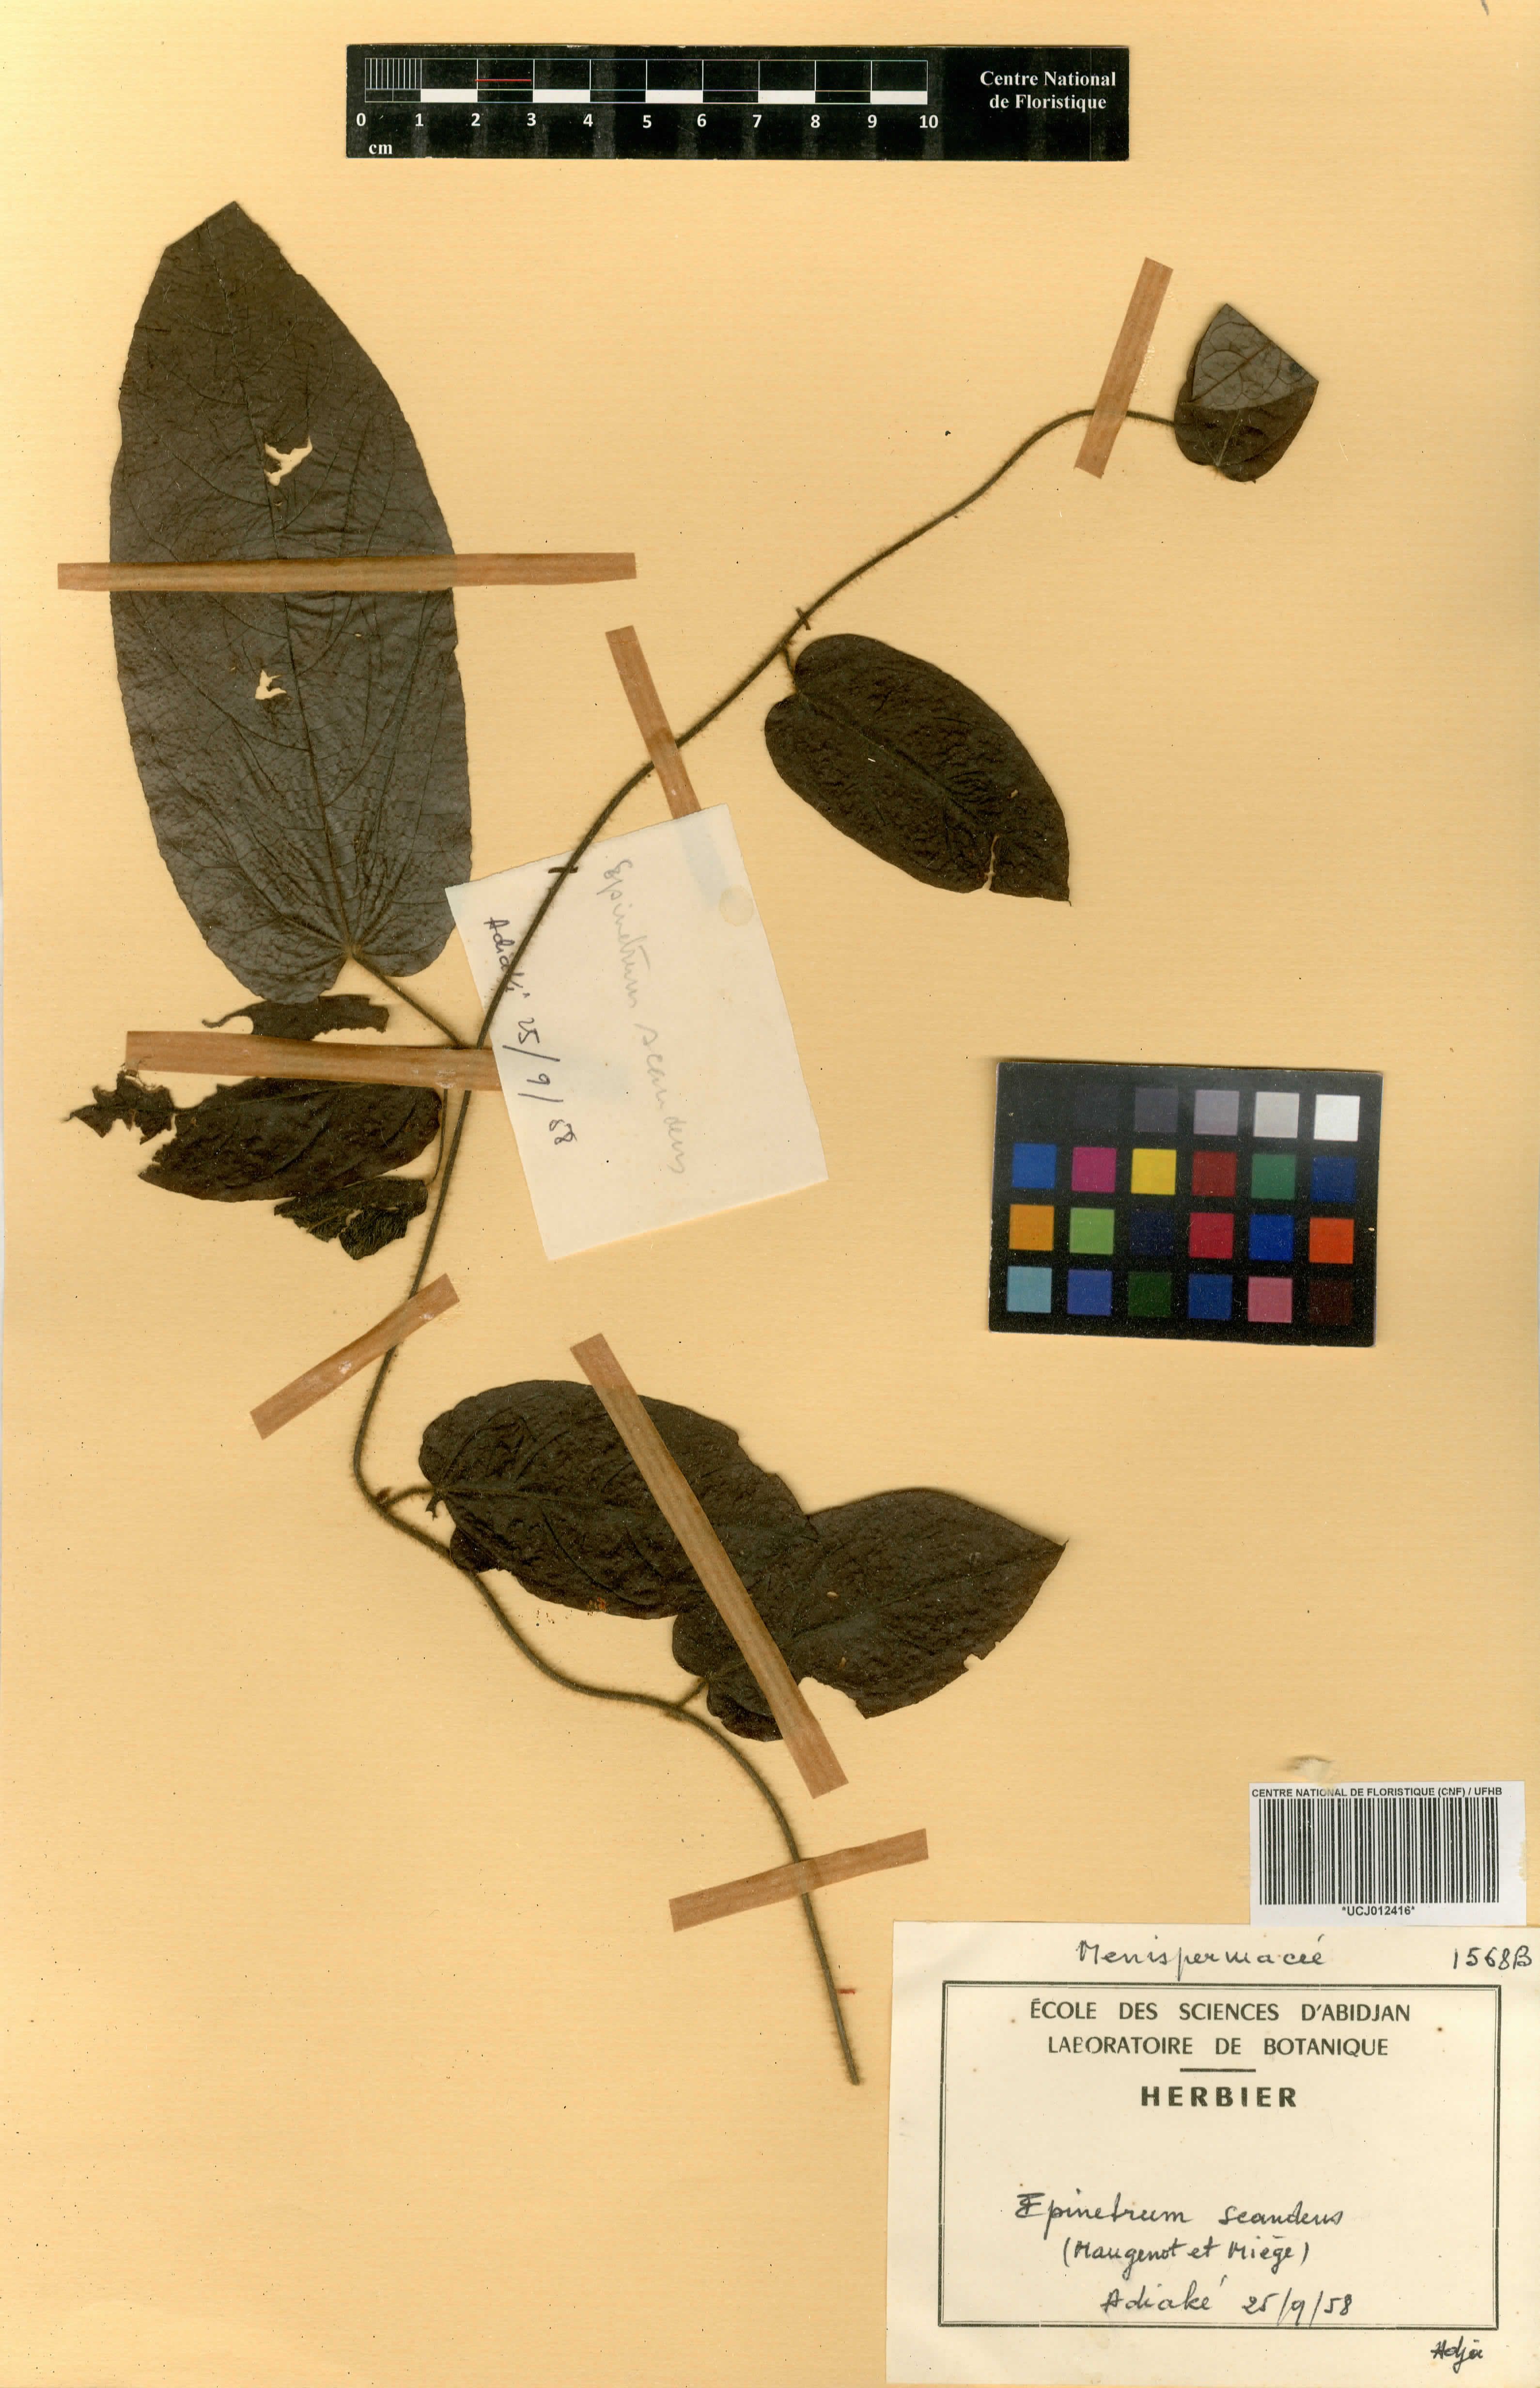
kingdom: Plantae
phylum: Tracheophyta
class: Magnoliopsida
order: Ranunculales
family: Menispermaceae
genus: Albertisia
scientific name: Albertisia scandens
